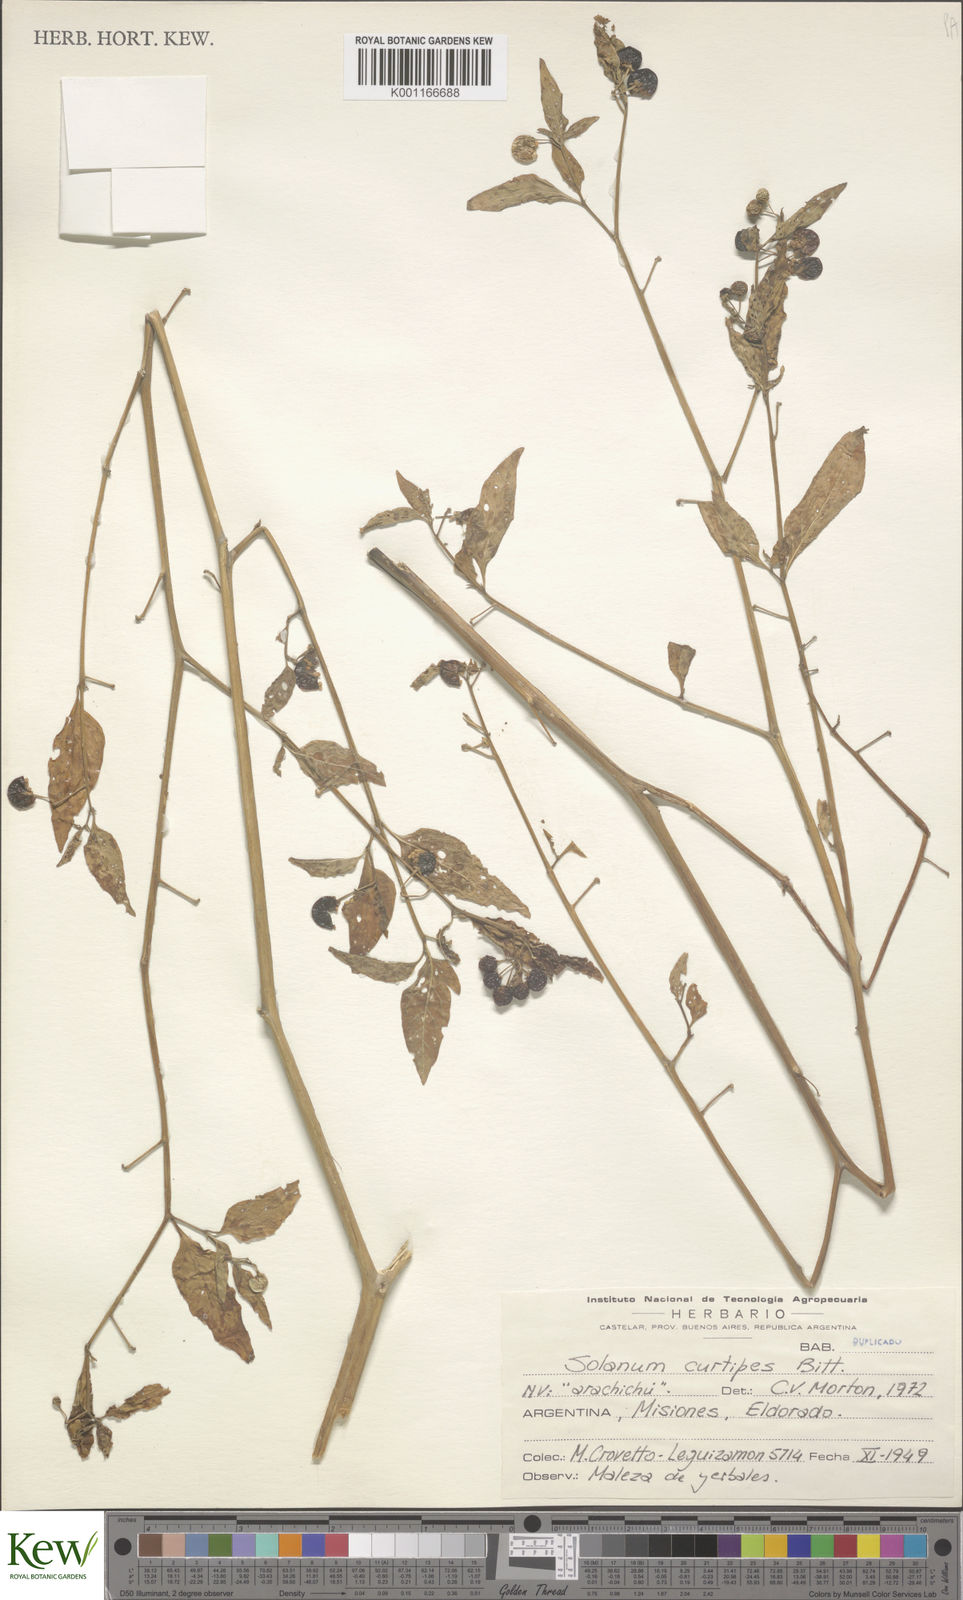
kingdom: Plantae
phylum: Tracheophyta
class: Magnoliopsida
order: Solanales
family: Solanaceae
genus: Solanum
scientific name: Solanum americanum
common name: American black nightshade
